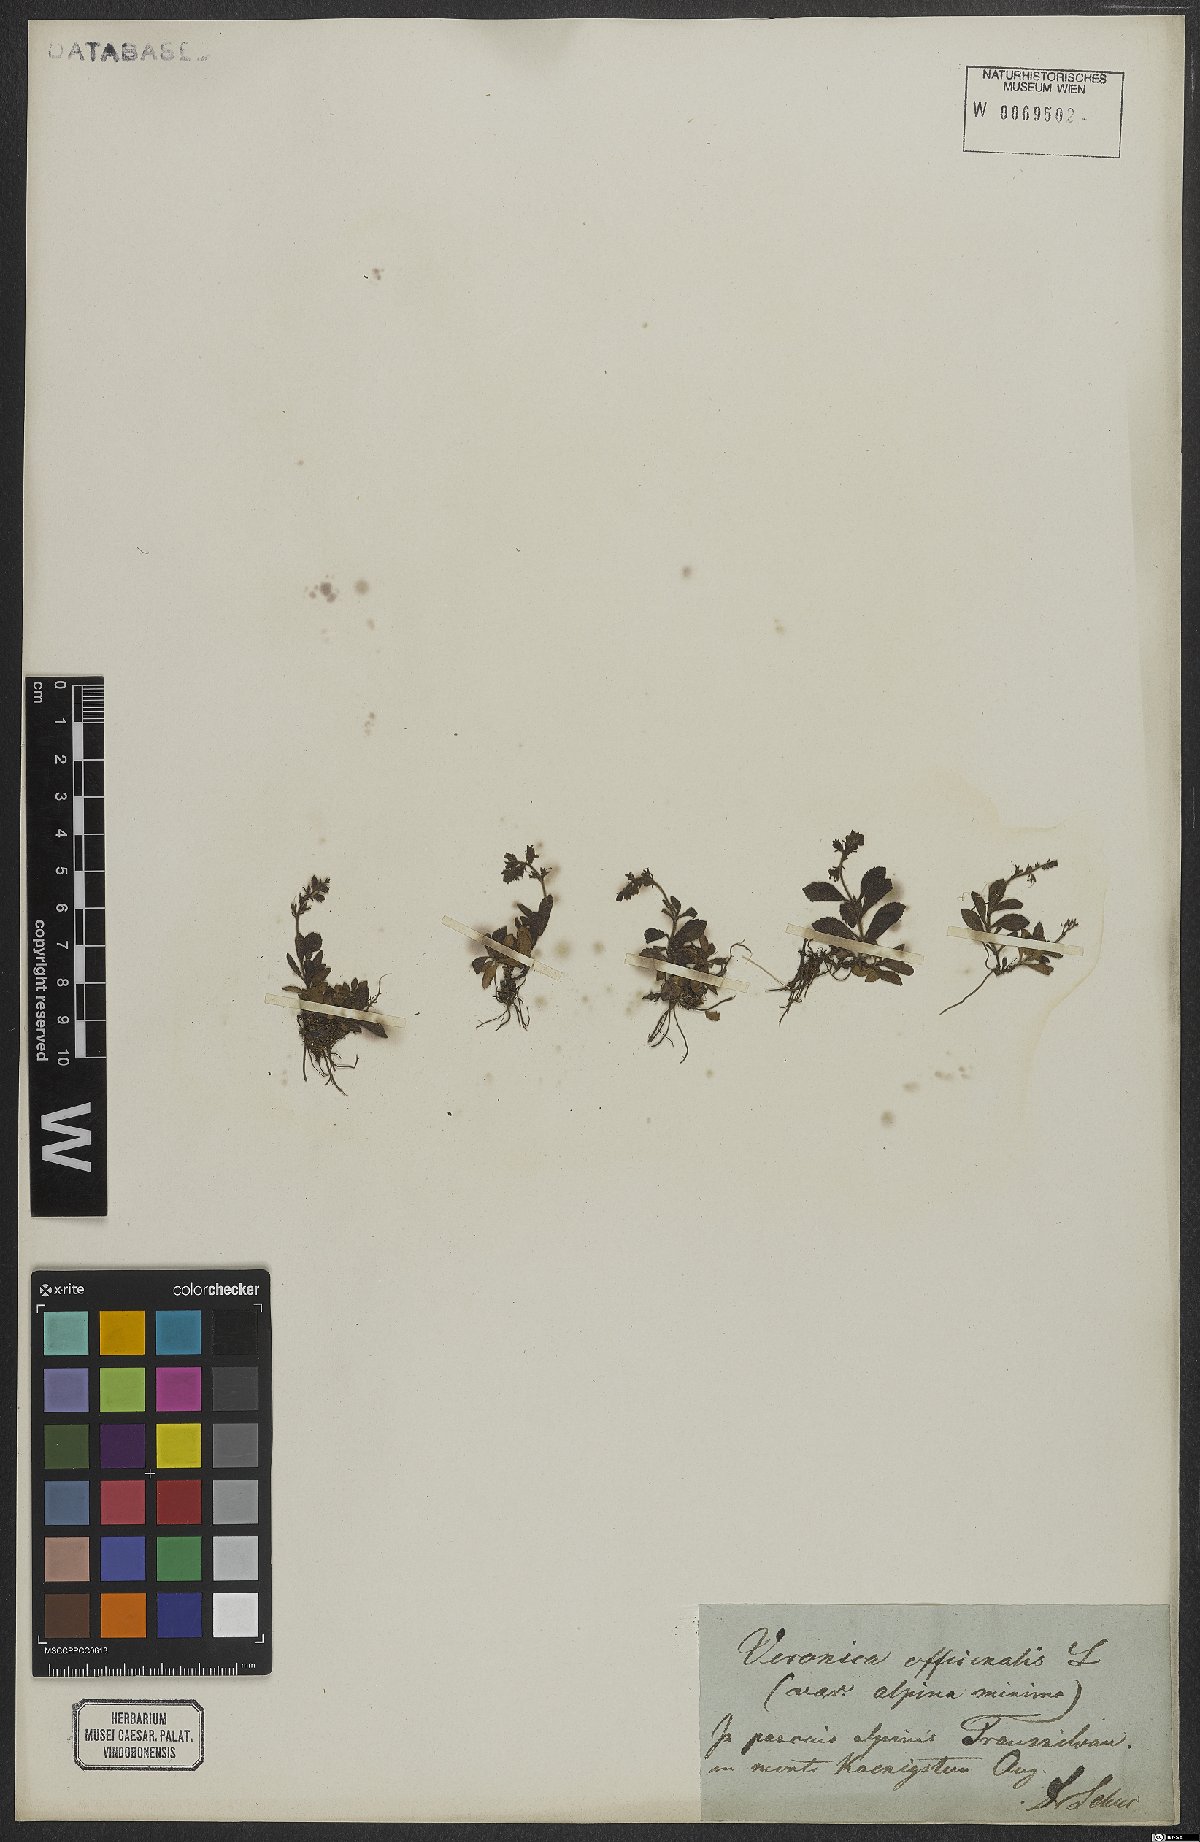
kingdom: Plantae
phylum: Tracheophyta
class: Magnoliopsida
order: Lamiales
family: Plantaginaceae
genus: Veronica
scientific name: Veronica officinalis
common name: Common speedwell
